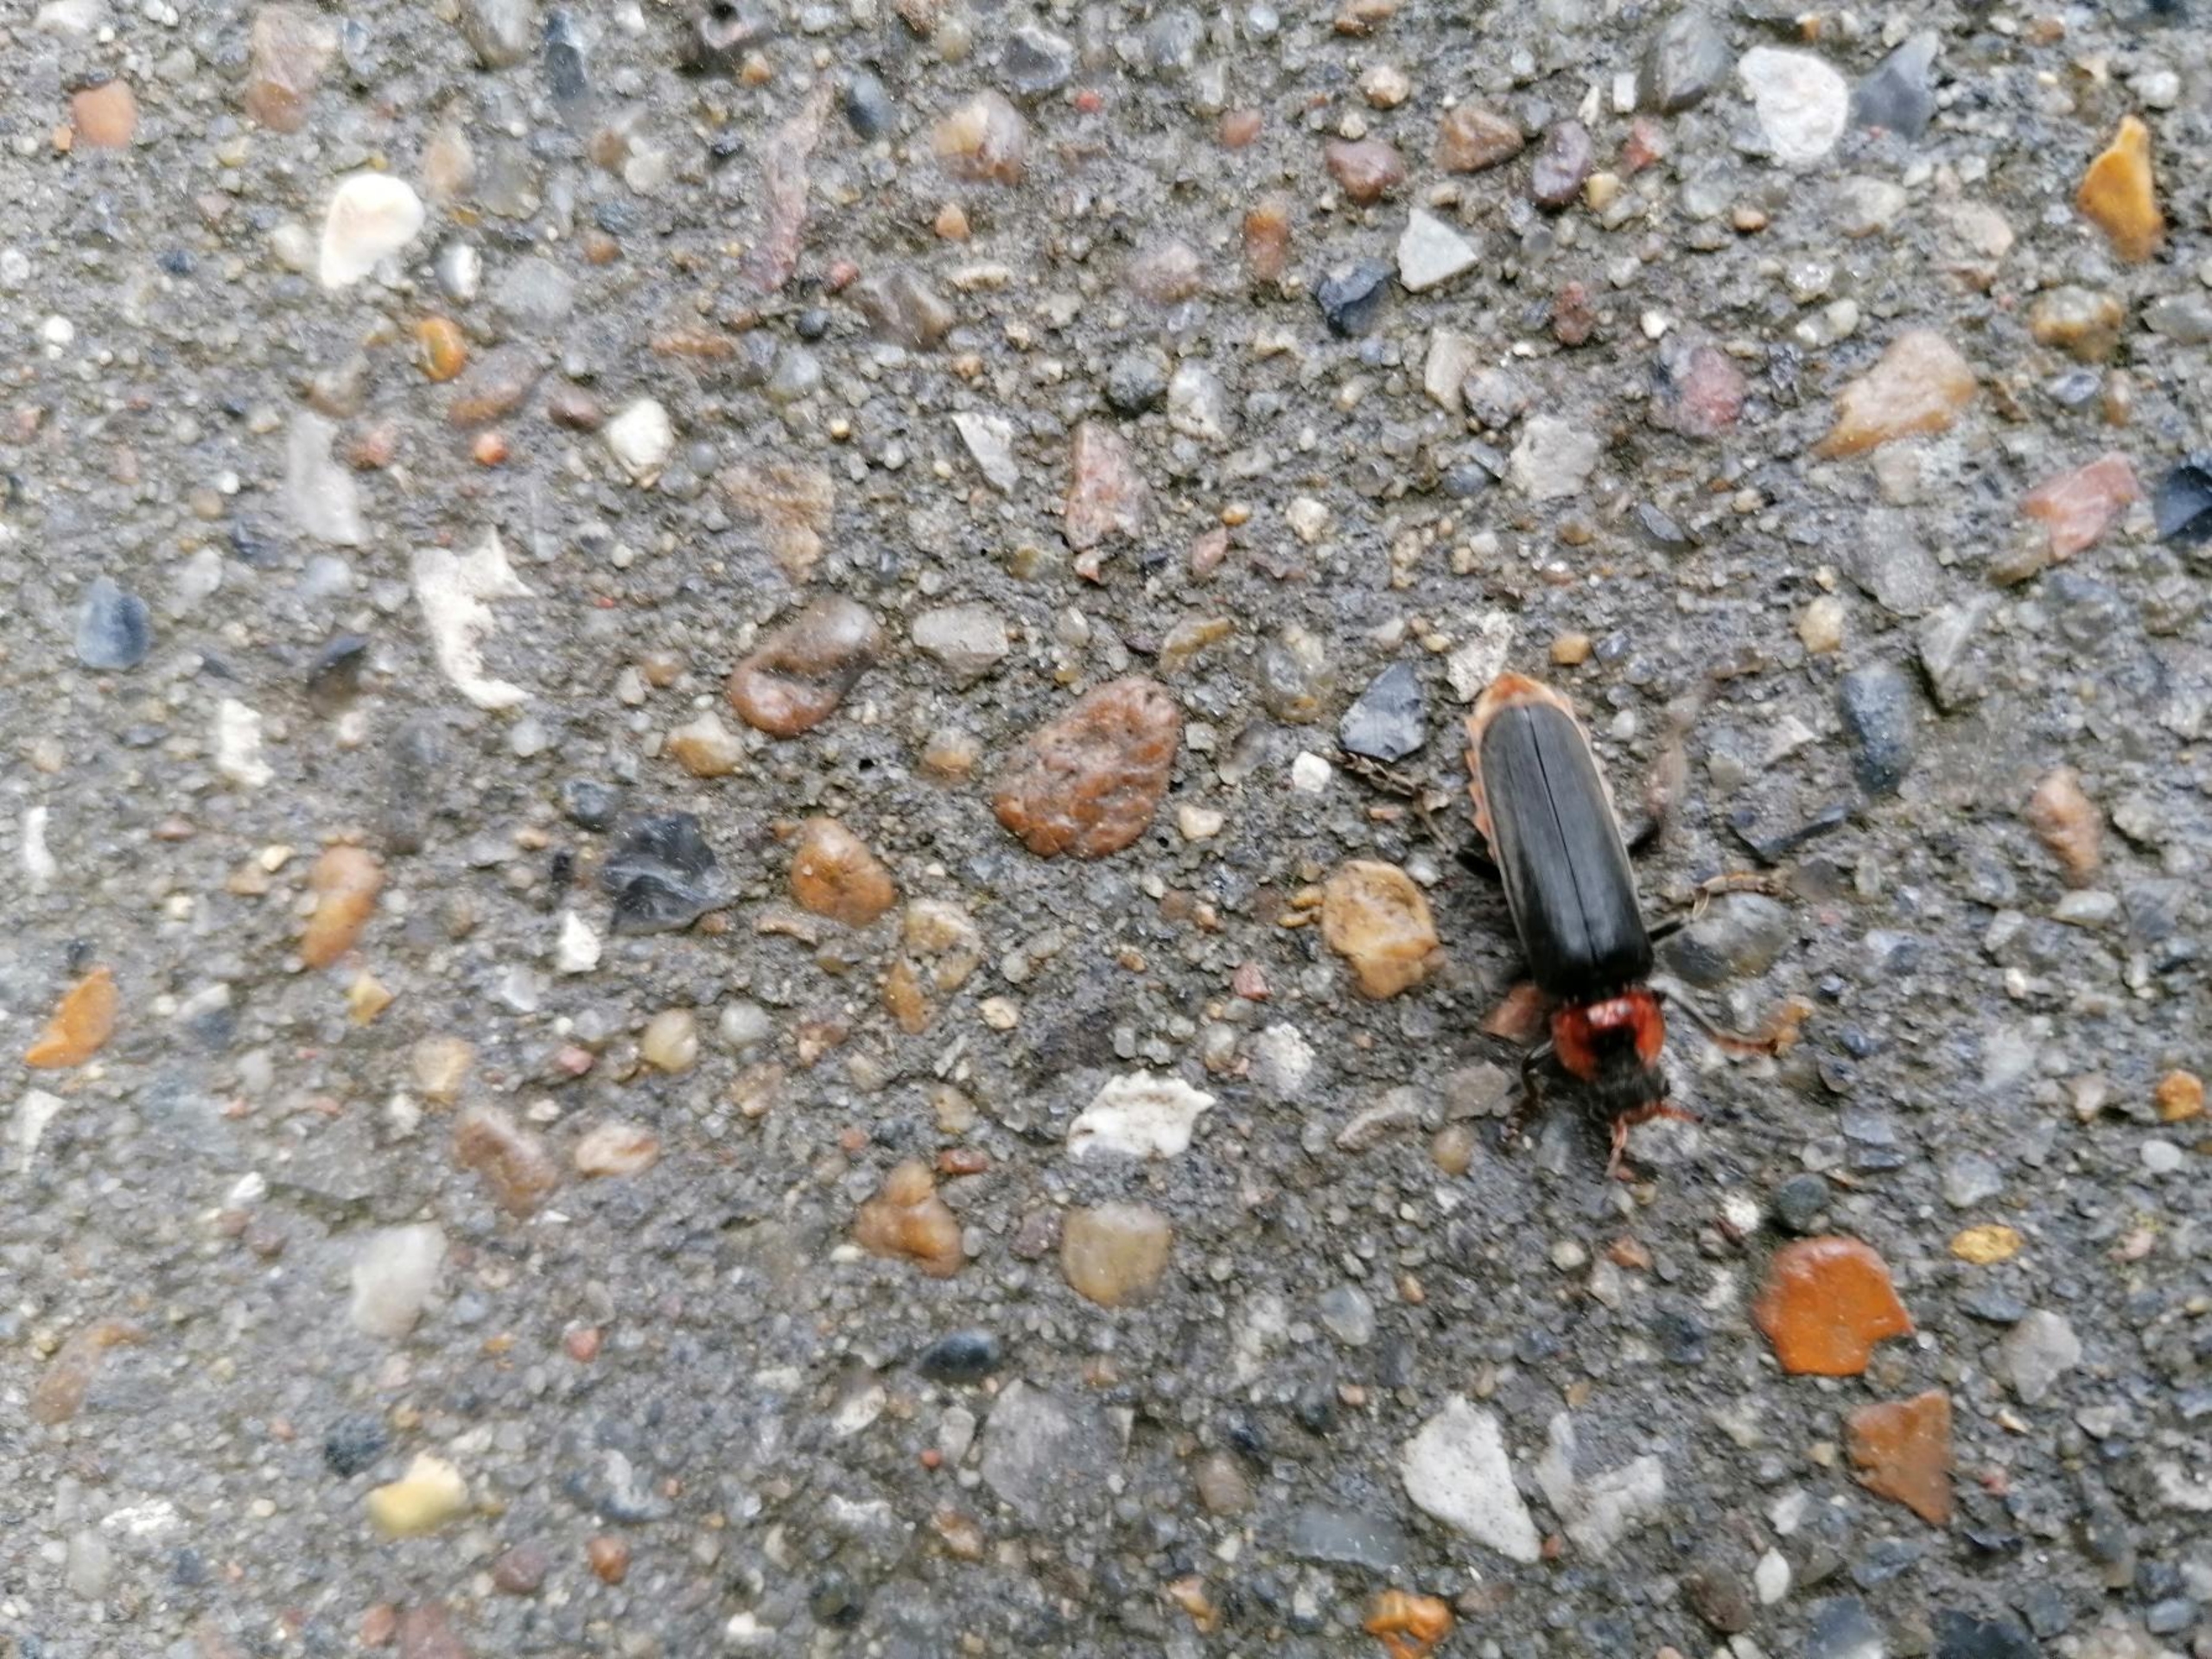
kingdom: Animalia
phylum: Arthropoda
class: Insecta
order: Coleoptera
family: Cantharidae
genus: Cantharis
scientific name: Cantharis fusca
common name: Stor blødvinge
